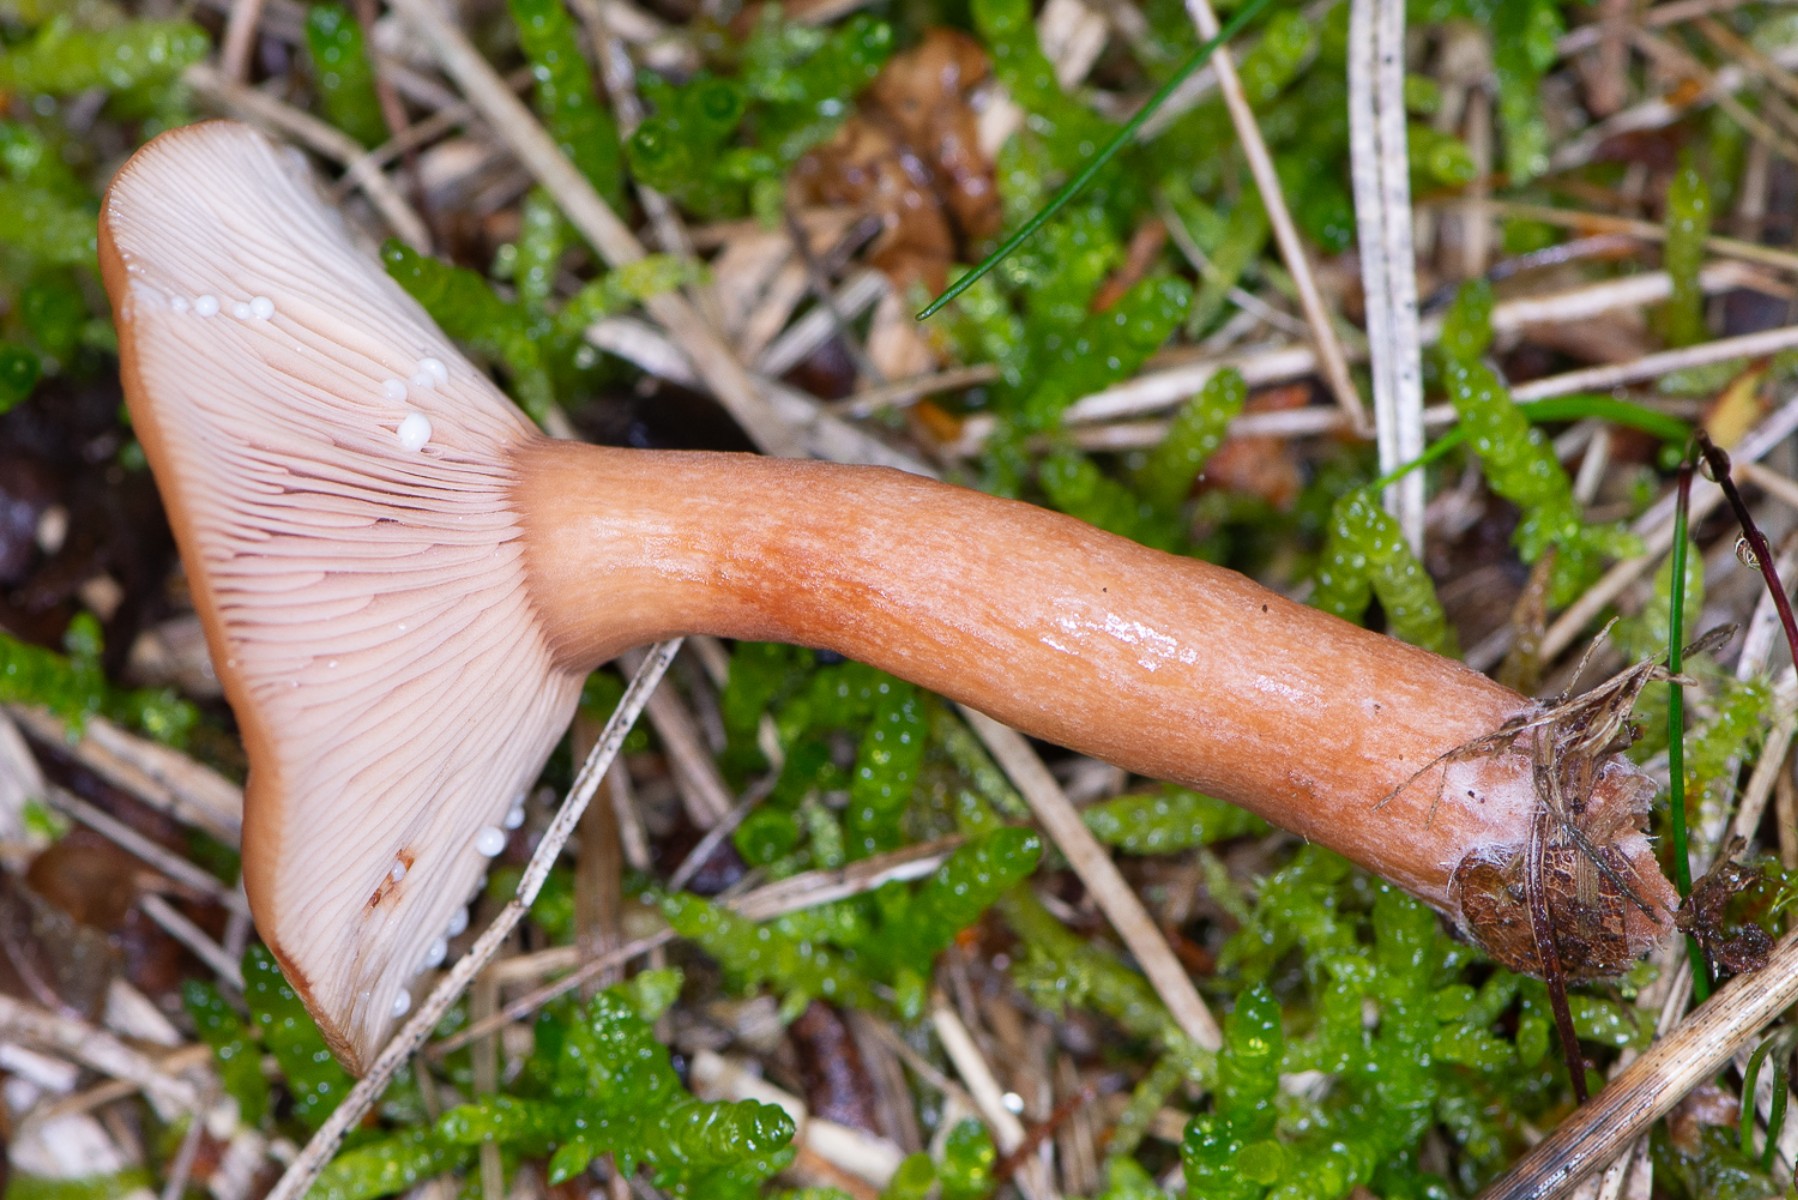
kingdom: Fungi
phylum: Basidiomycota
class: Agaricomycetes
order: Russulales
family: Russulaceae
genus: Lactarius
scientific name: Lactarius aurantiacus
